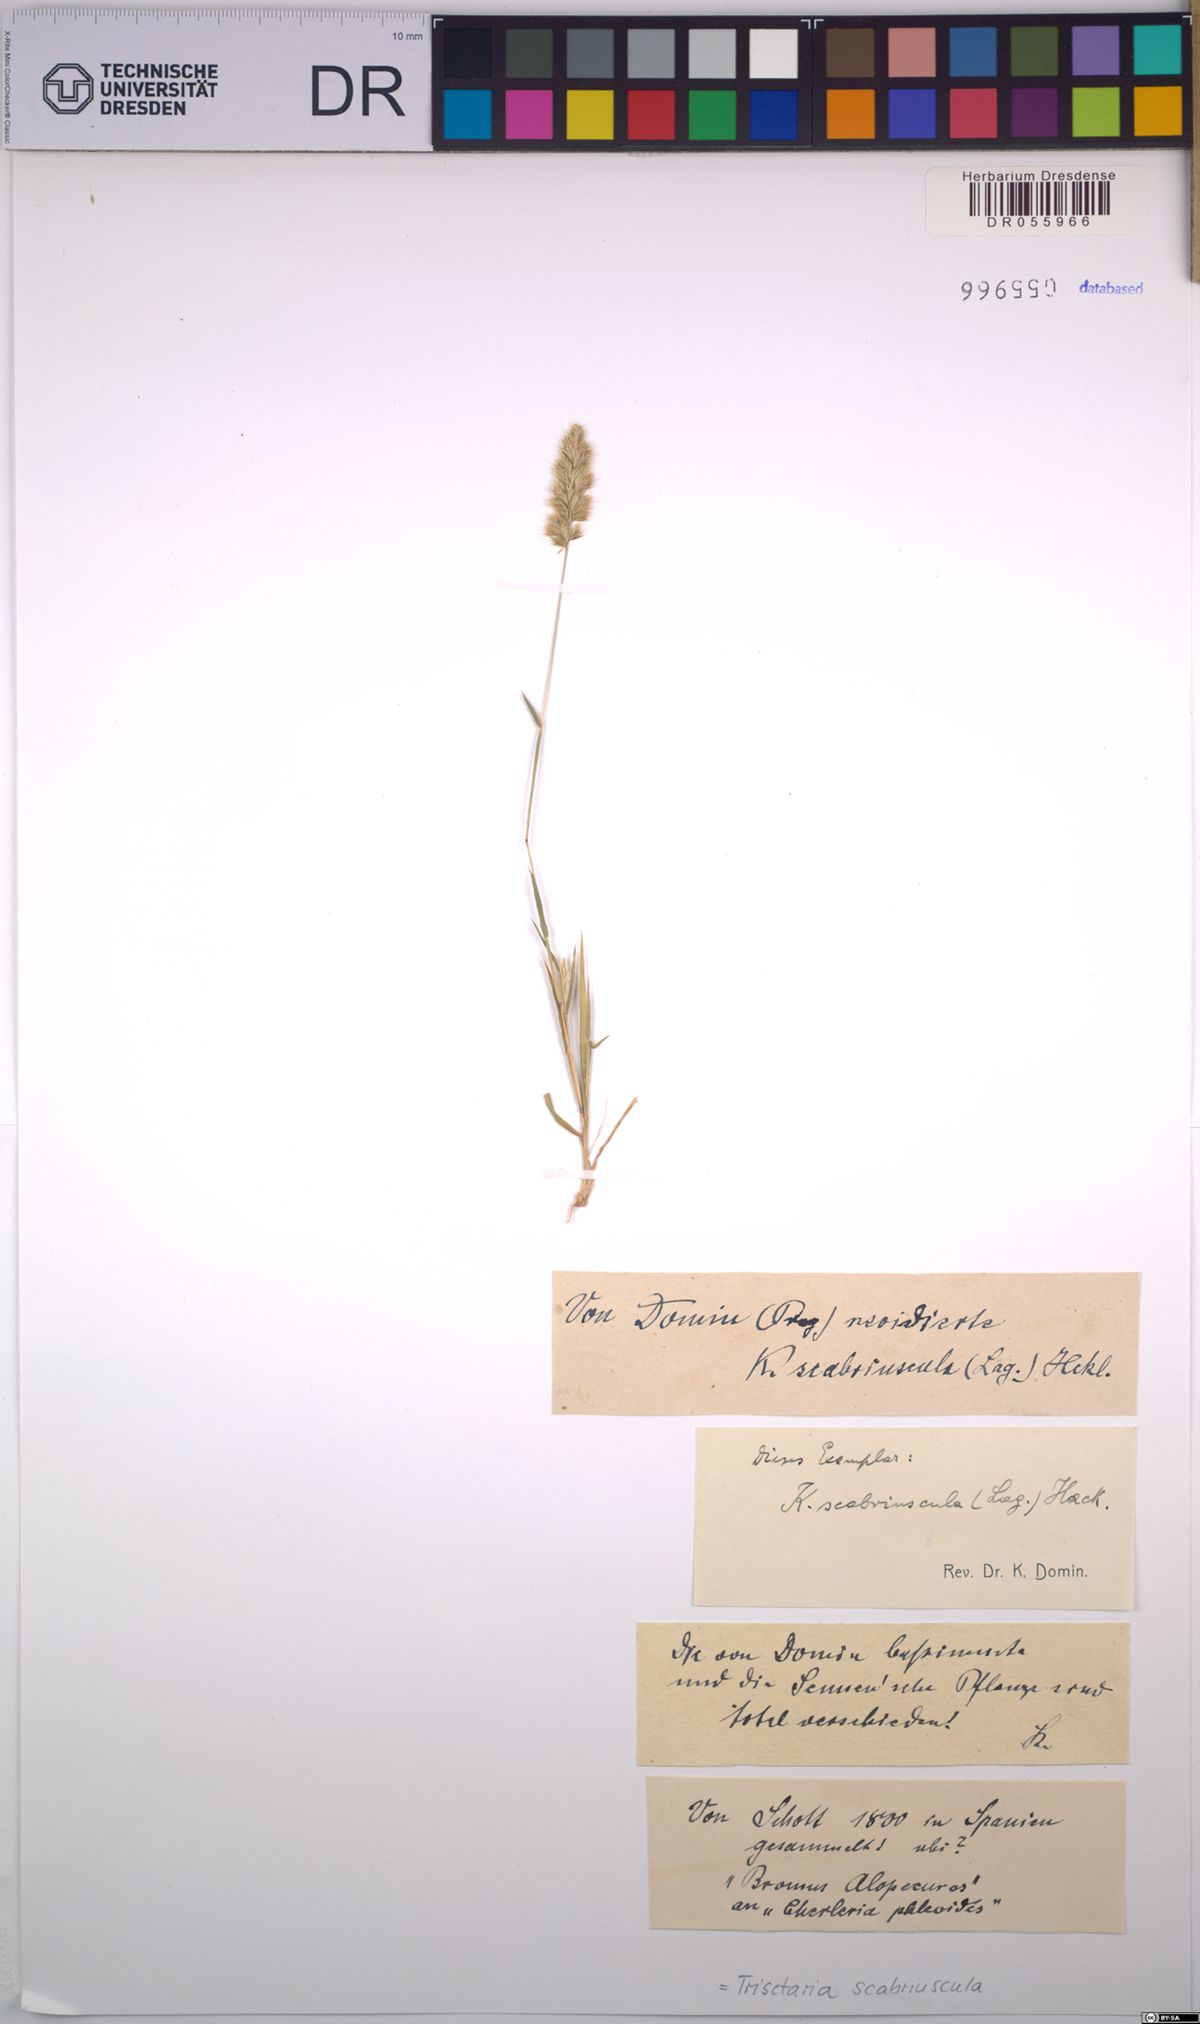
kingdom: Plantae
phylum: Tracheophyta
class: Liliopsida
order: Poales
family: Poaceae
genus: Trisetaria
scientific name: Trisetaria scabriuscula
